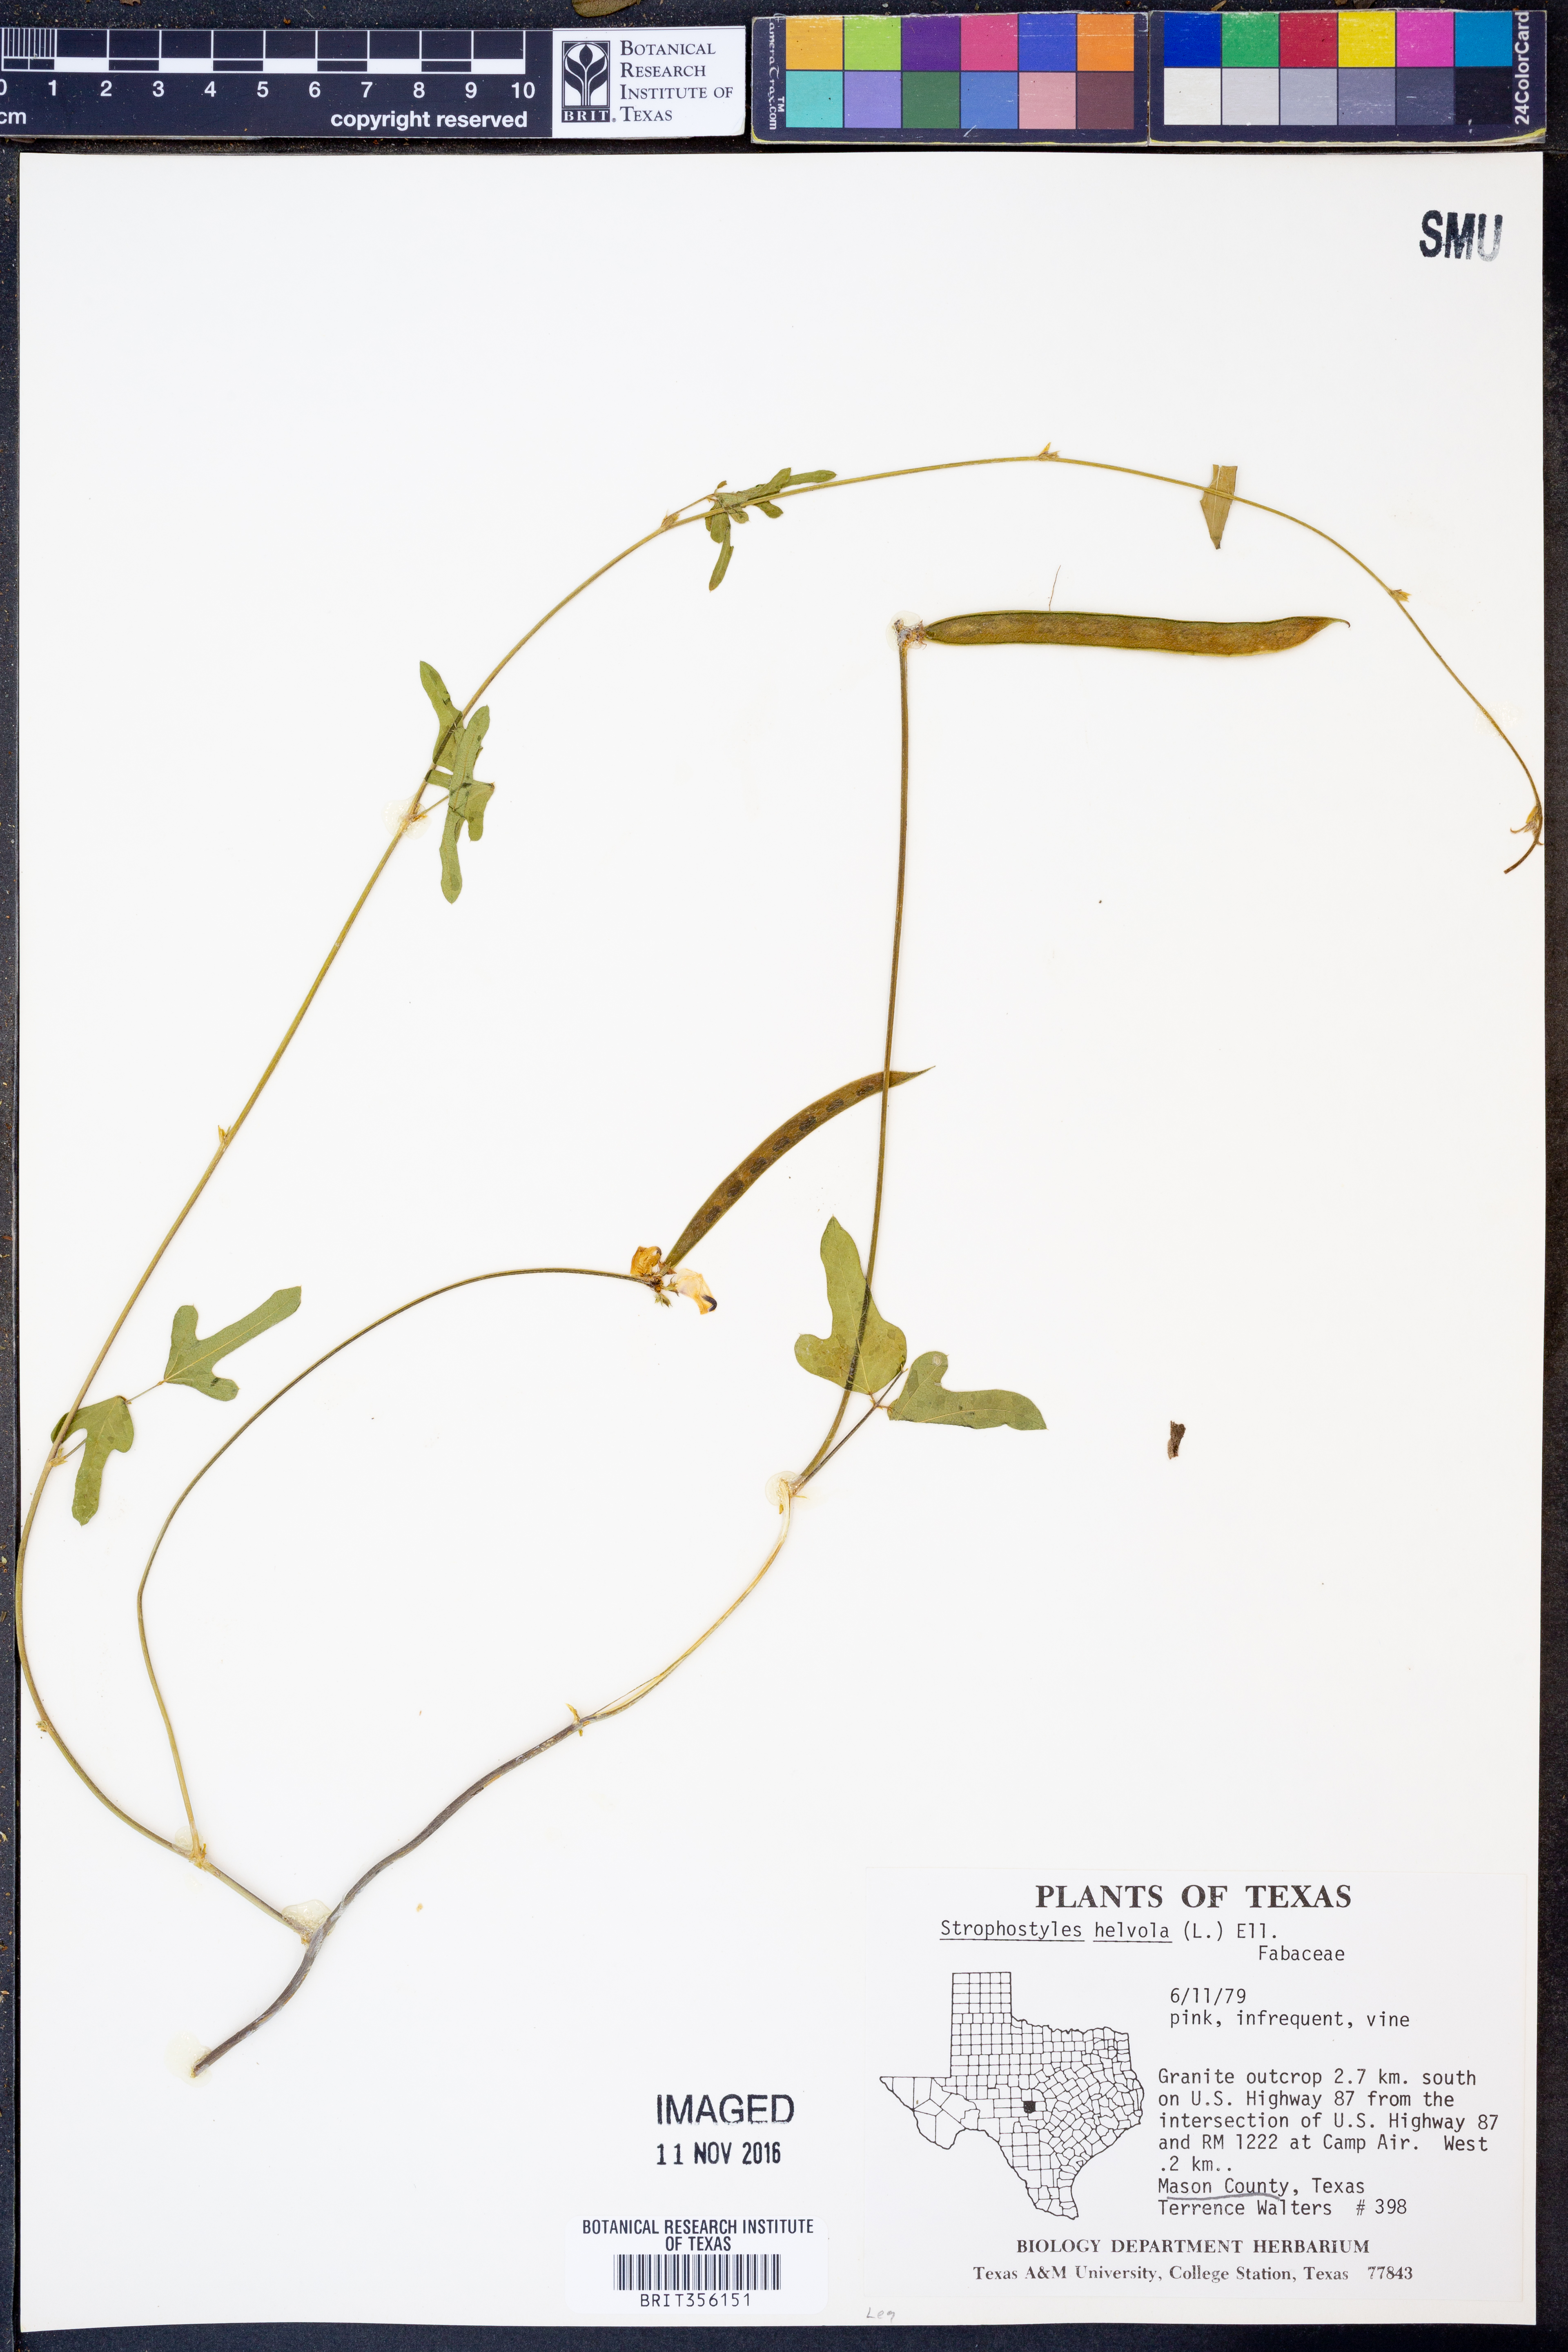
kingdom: Plantae
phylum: Tracheophyta
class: Magnoliopsida
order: Fabales
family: Fabaceae
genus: Strophostyles
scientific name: Strophostyles helvola
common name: Trailing wild bean
